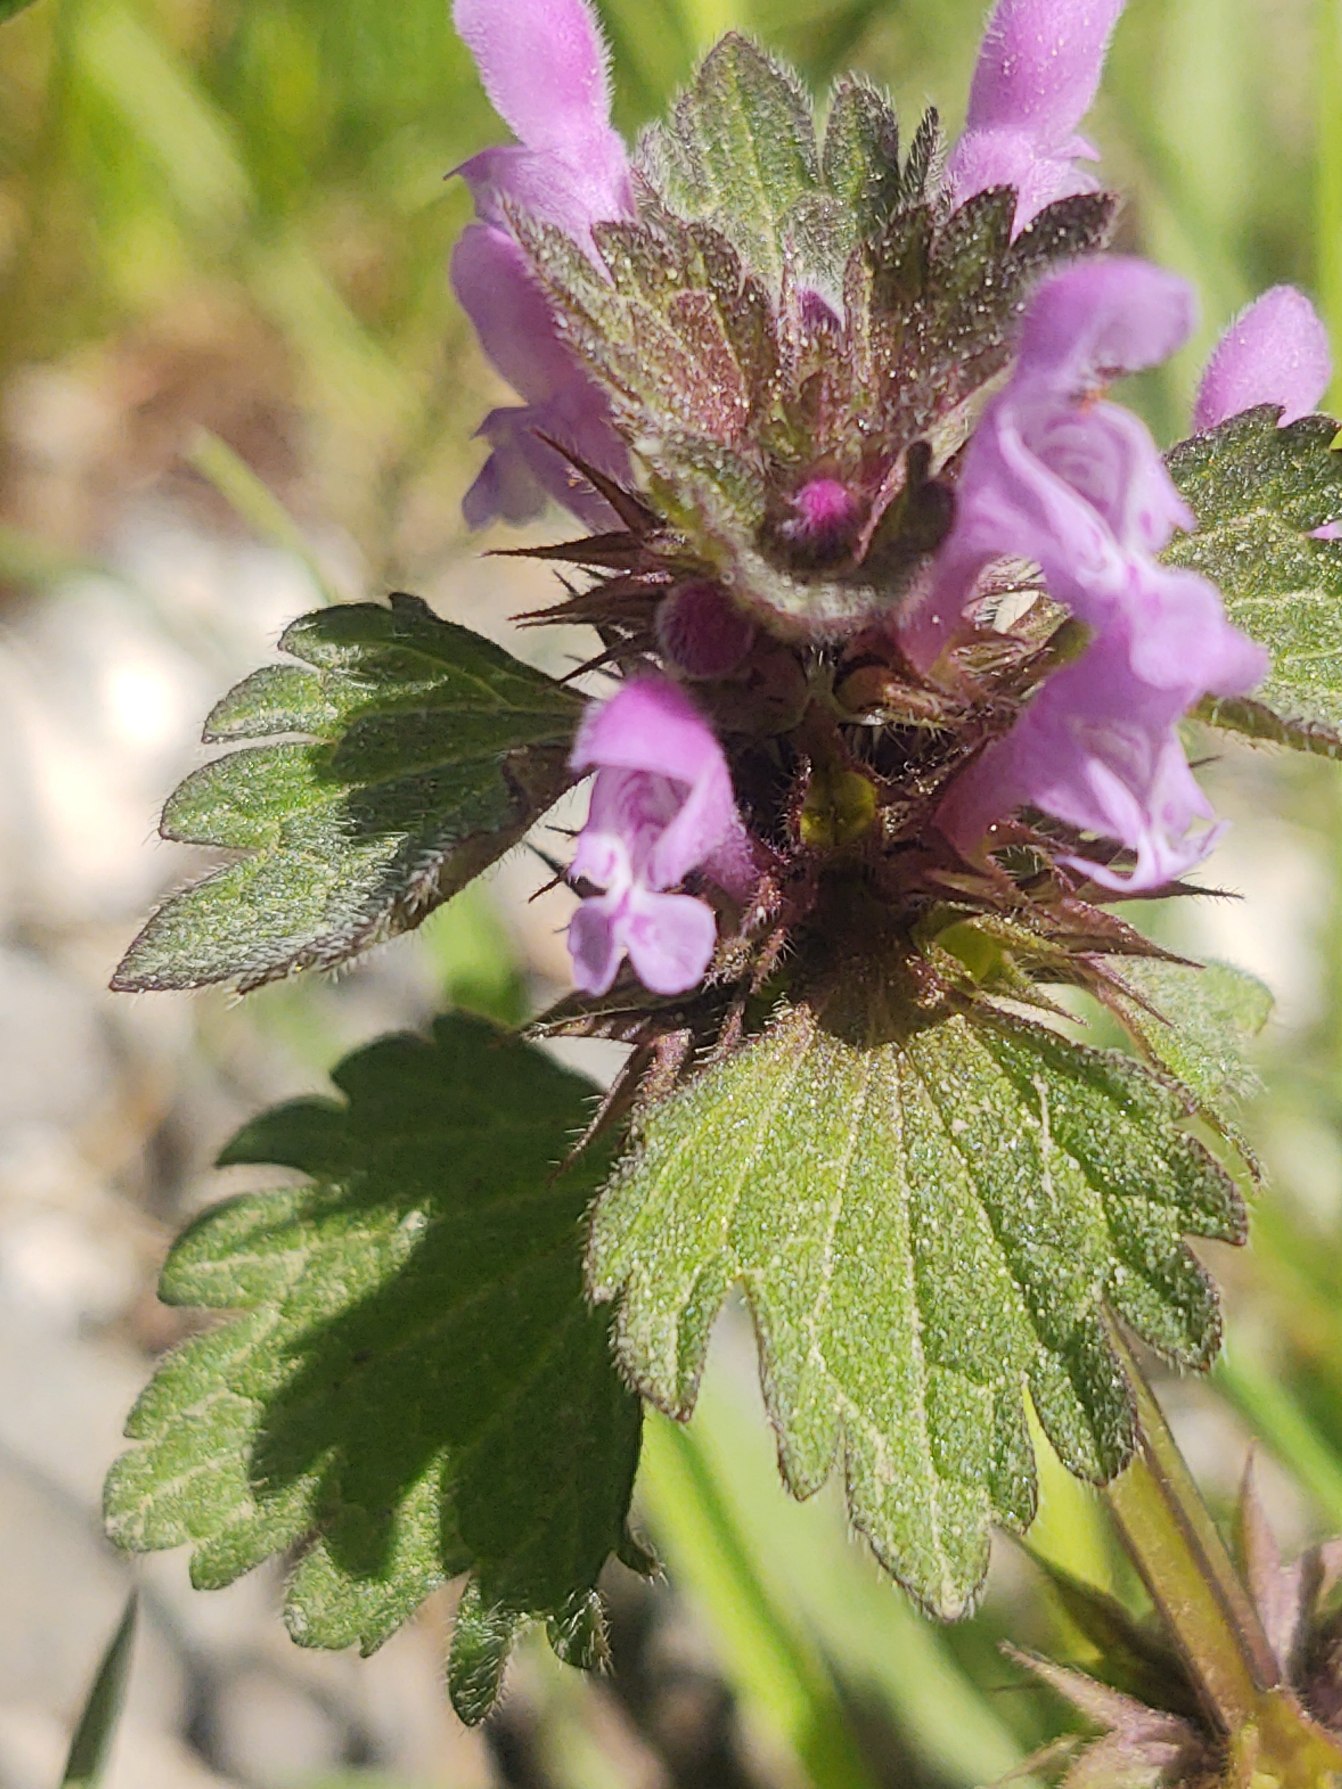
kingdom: Plantae
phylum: Tracheophyta
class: Magnoliopsida
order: Lamiales
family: Lamiaceae
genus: Lamium
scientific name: Lamium hybridum
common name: Fliget tvetand
